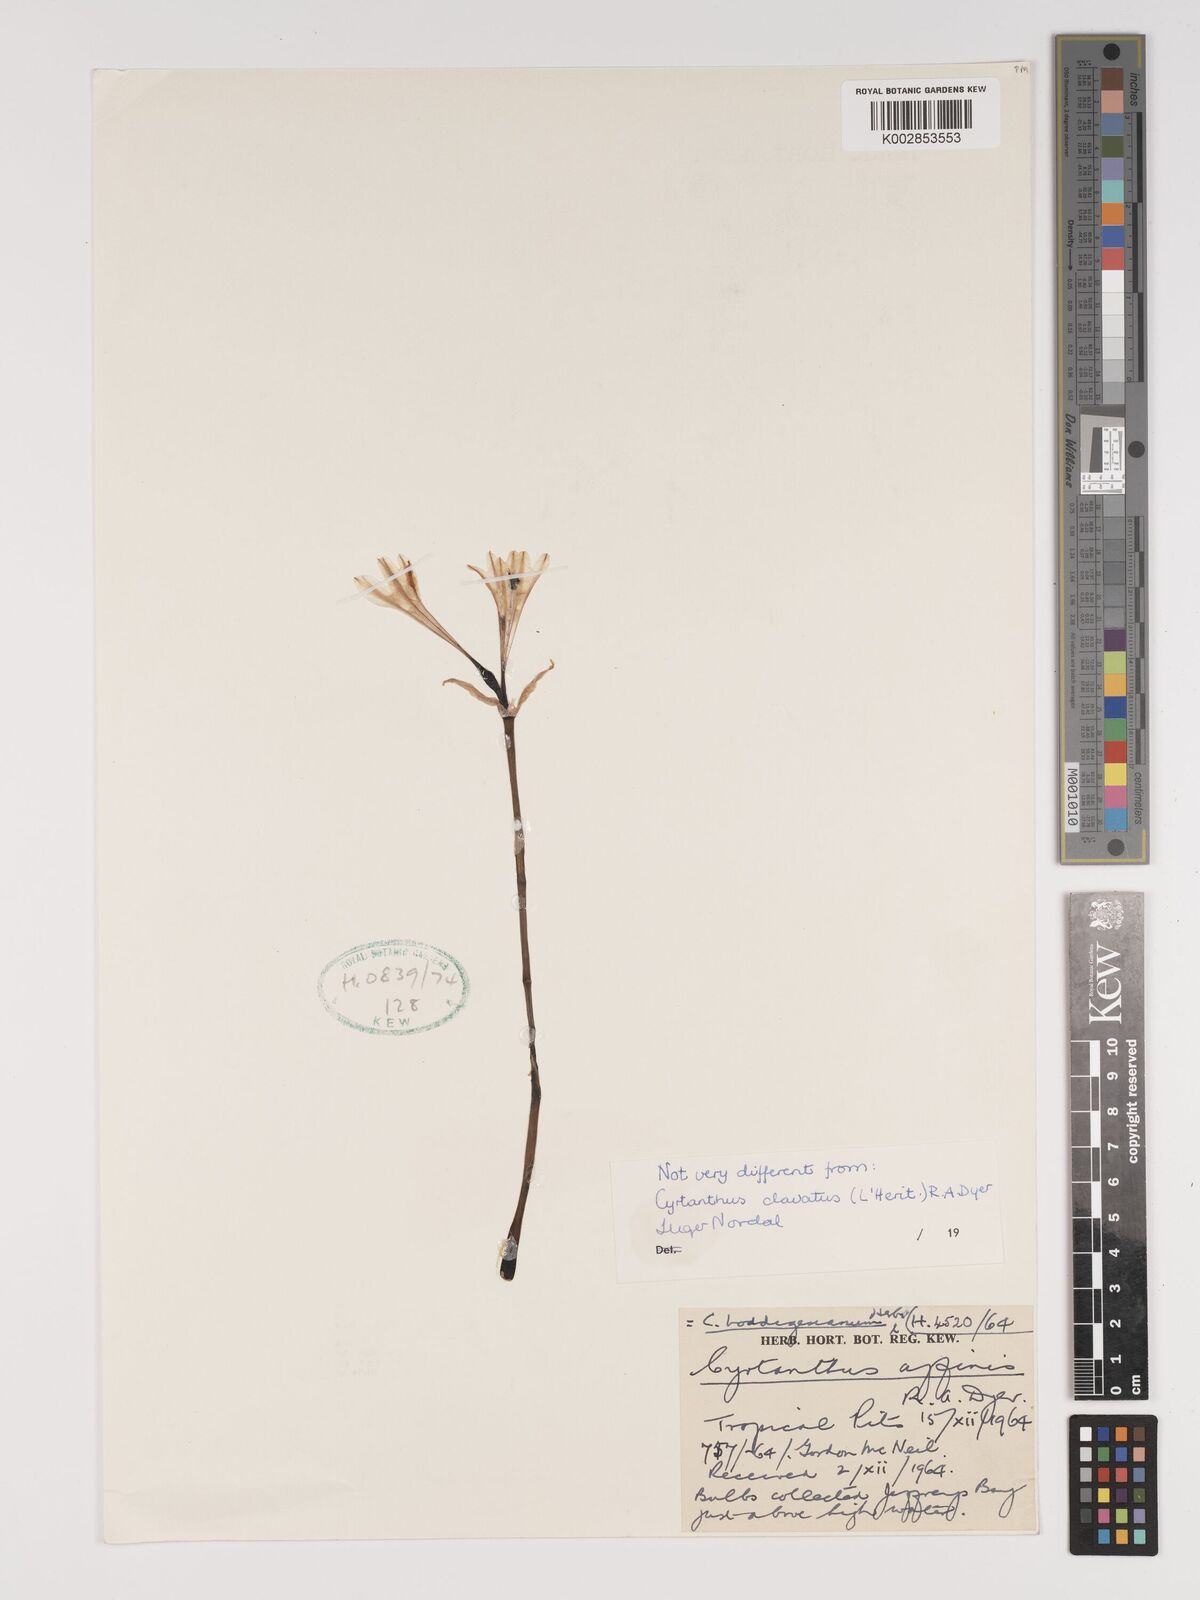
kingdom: Plantae
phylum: Tracheophyta
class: Liliopsida
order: Asparagales
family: Amaryllidaceae
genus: Cyrtanthus
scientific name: Cyrtanthus loddigesianus
